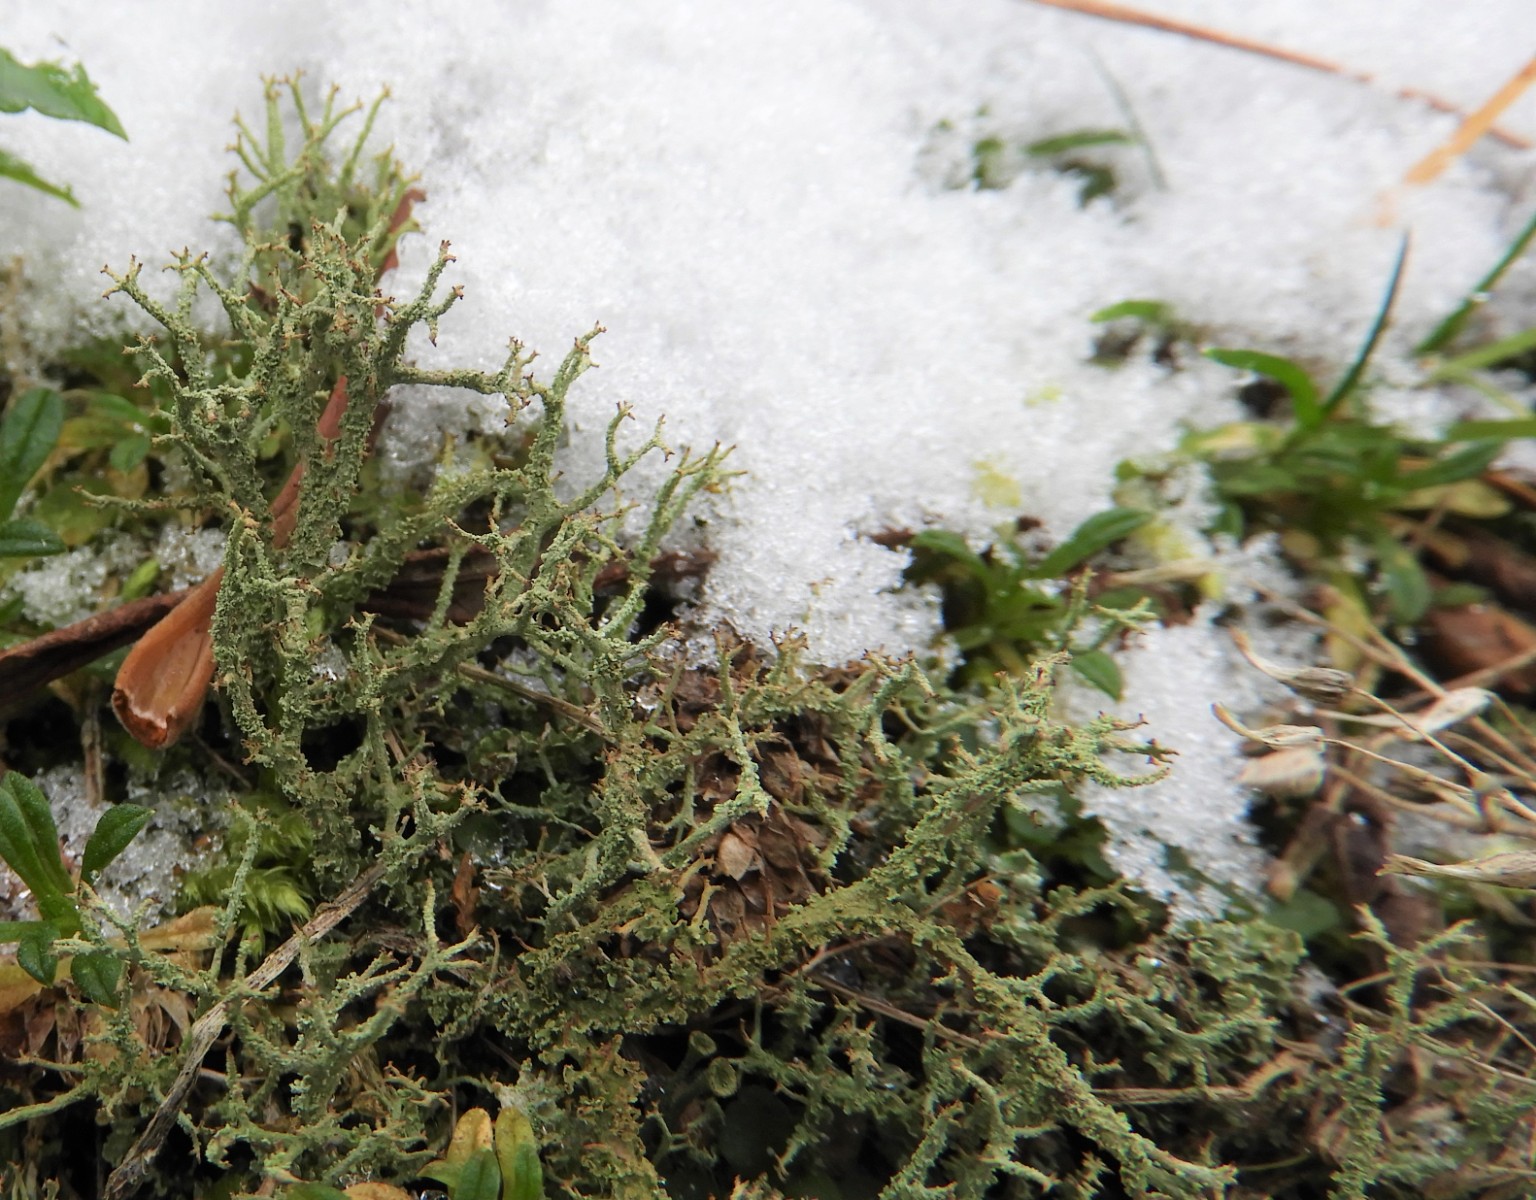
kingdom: Fungi
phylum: Ascomycota
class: Lecanoromycetes
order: Lecanorales
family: Cladoniaceae
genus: Cladonia
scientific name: Cladonia scabriuscula
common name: ru bægerlav
